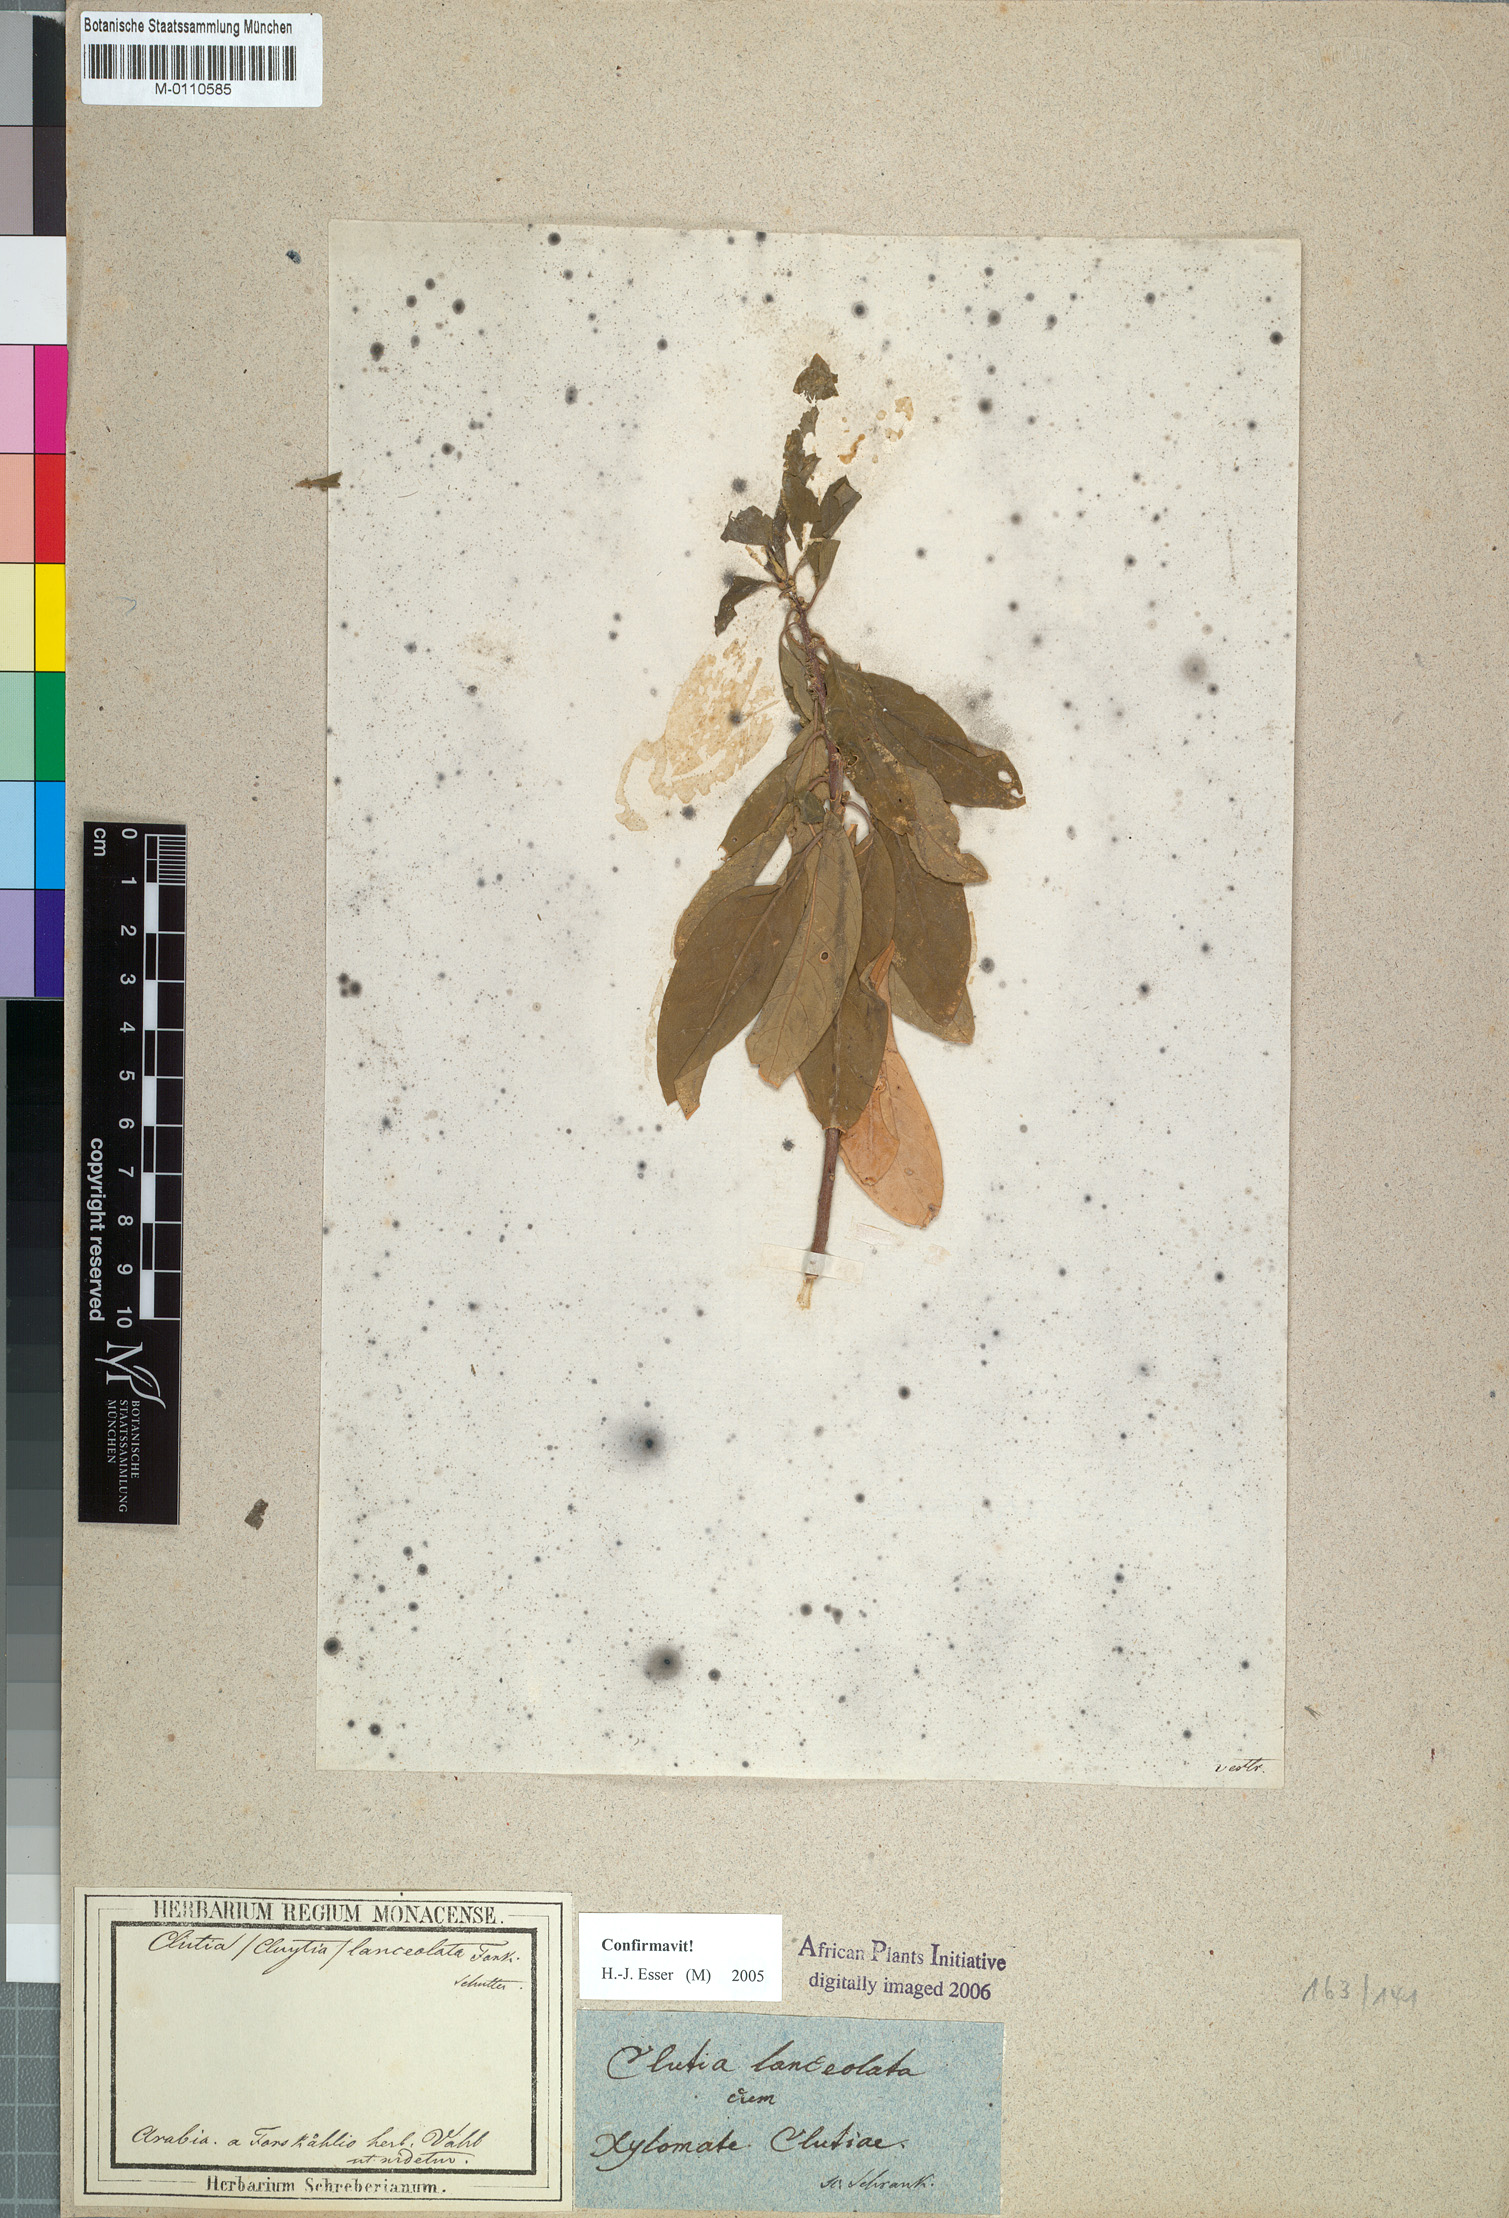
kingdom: Plantae
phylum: Tracheophyta
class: Magnoliopsida
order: Malpighiales
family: Peraceae
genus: Clutia
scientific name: Clutia lanceolata
